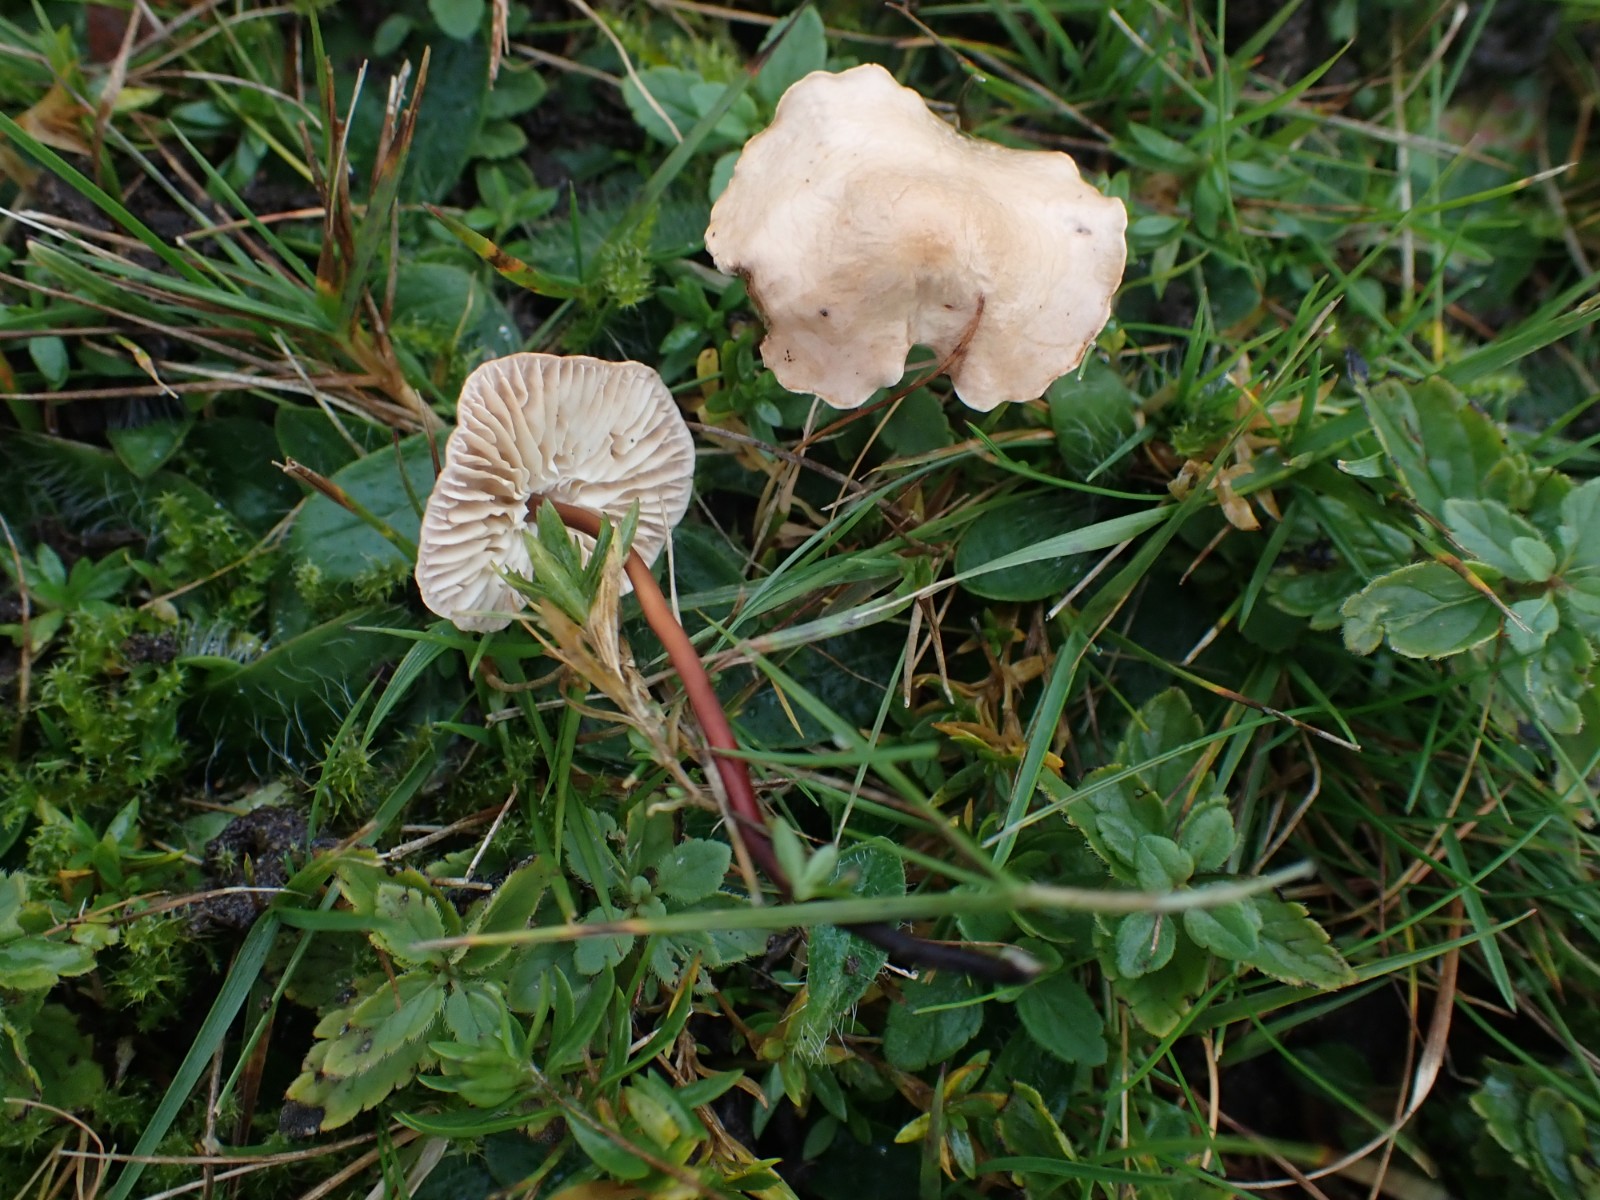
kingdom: Fungi
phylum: Basidiomycota
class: Agaricomycetes
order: Agaricales
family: Omphalotaceae
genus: Mycetinis
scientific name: Mycetinis scorodonius
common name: lille løghat
